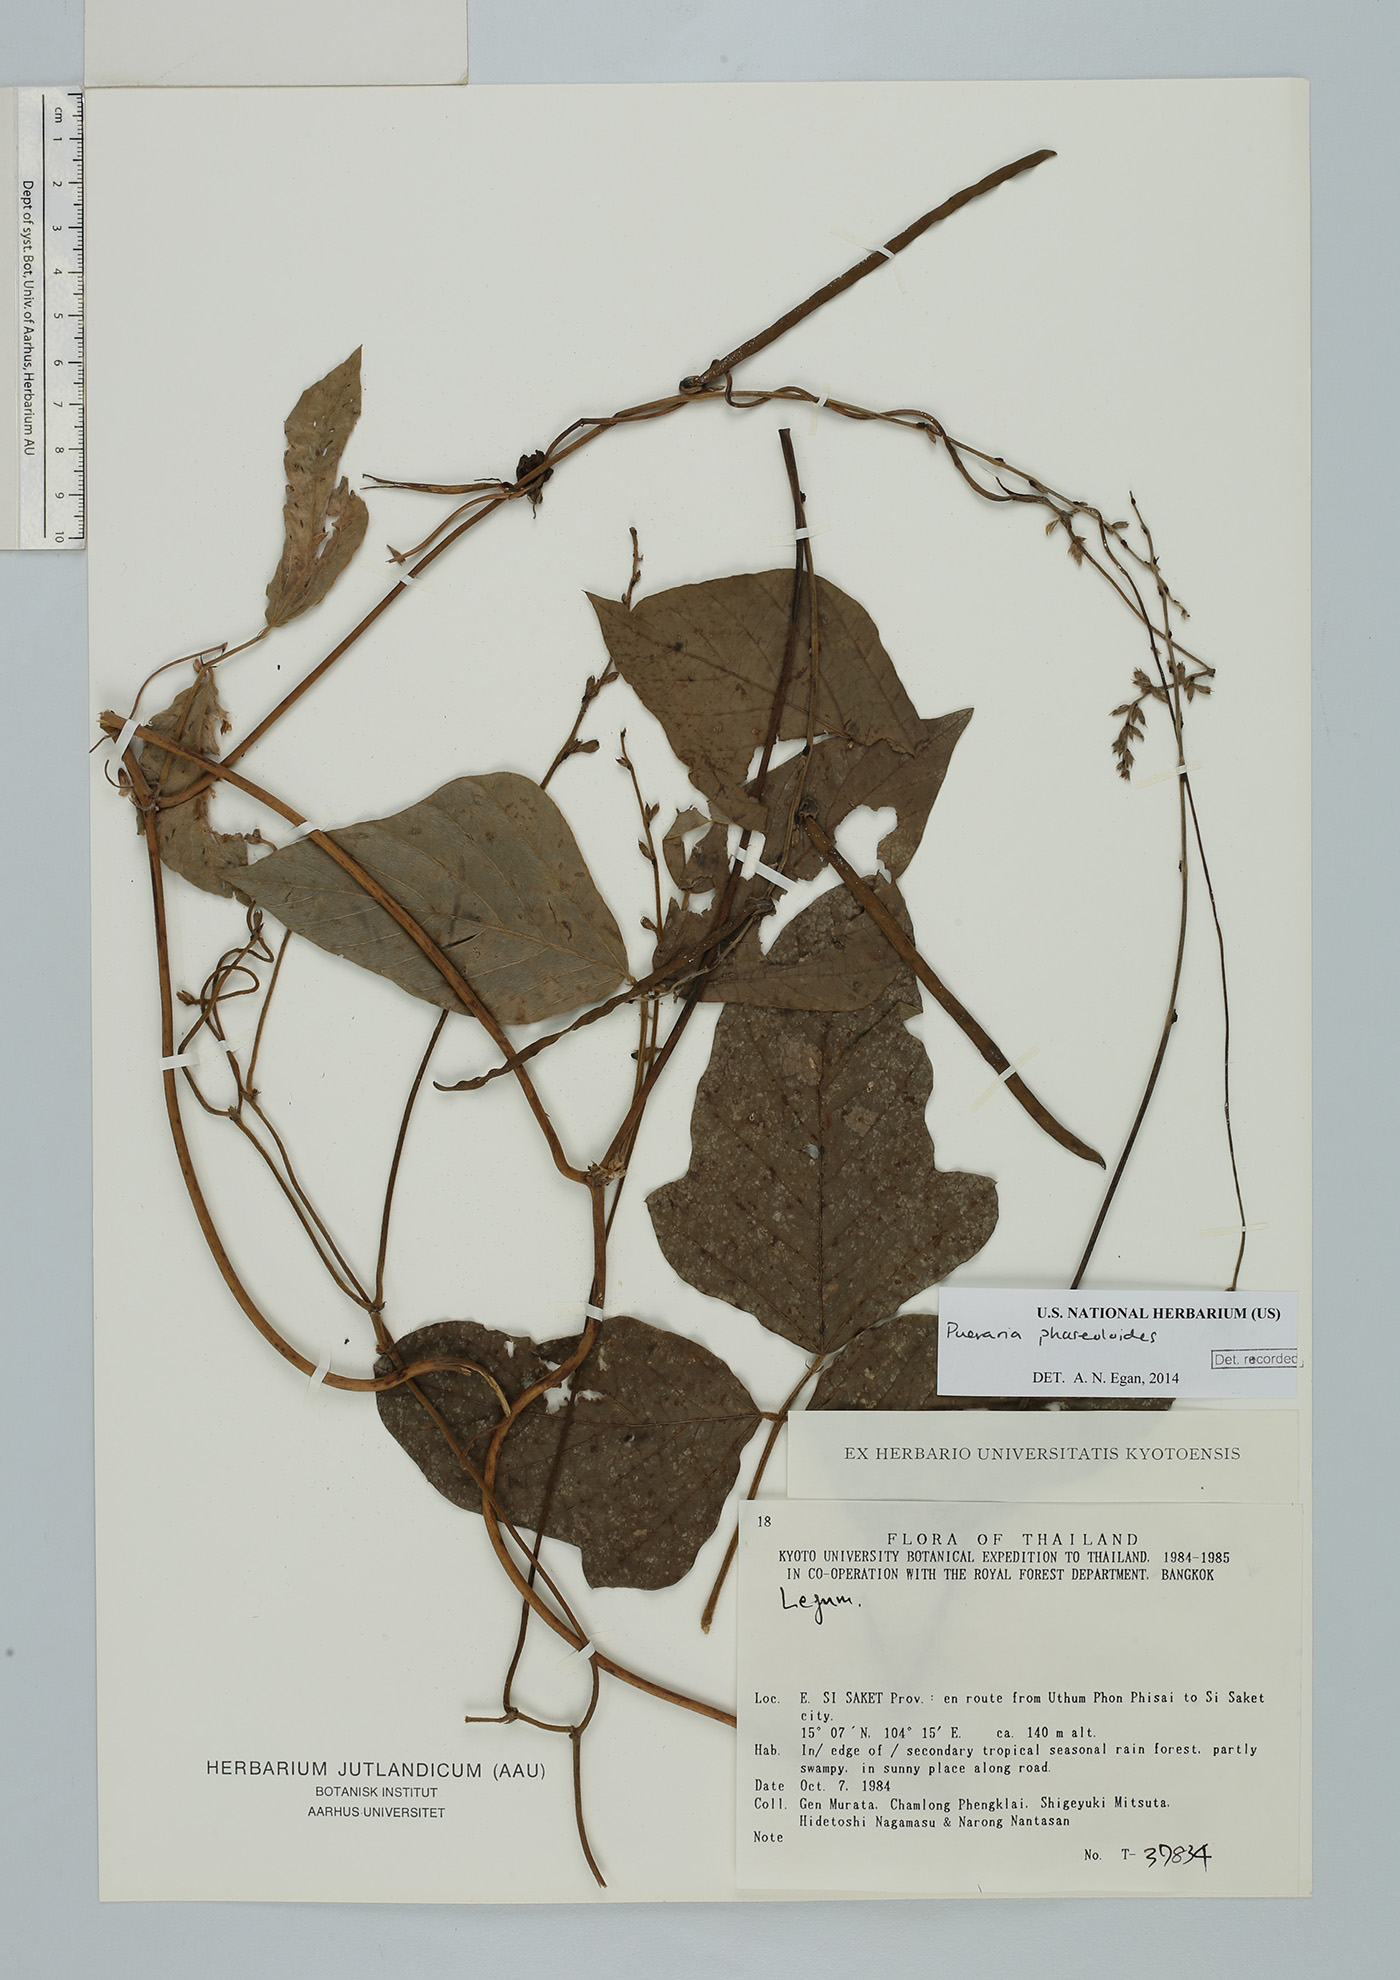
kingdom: Plantae
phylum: Tracheophyta
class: Magnoliopsida
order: Fabales
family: Fabaceae
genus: Neustanthus
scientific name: Neustanthus phaseoloides
